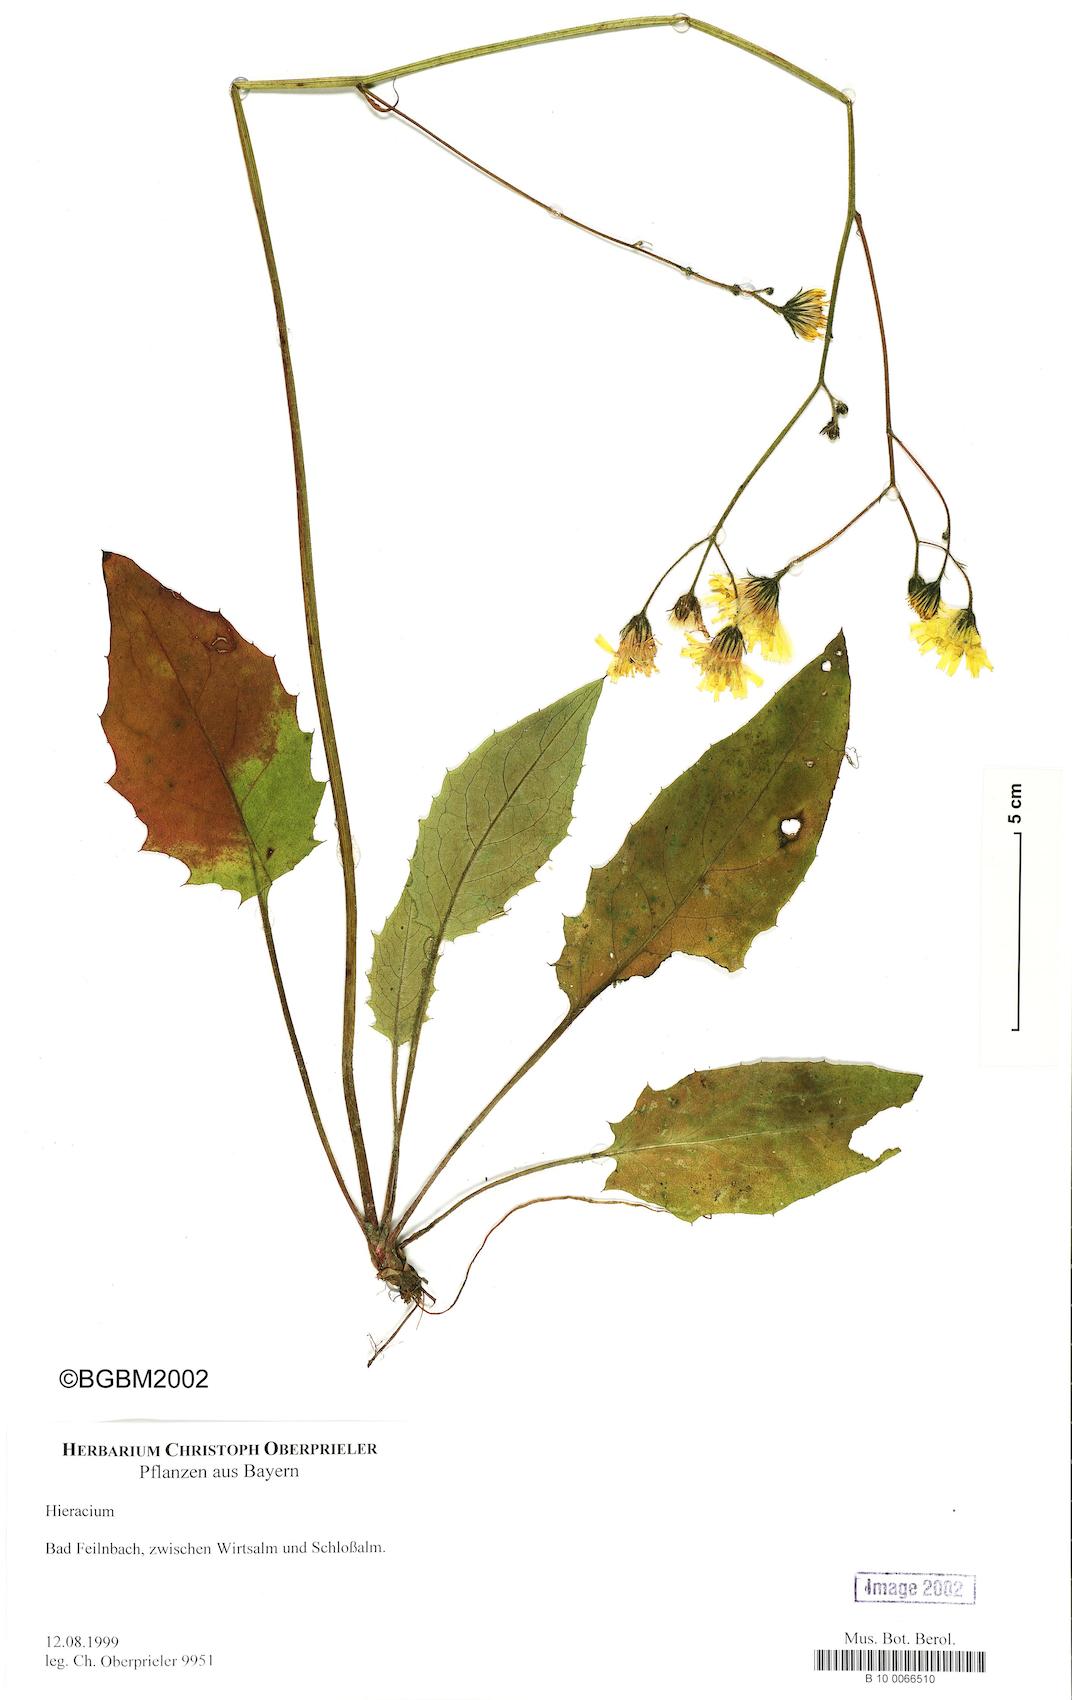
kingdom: Plantae
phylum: Tracheophyta
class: Magnoliopsida
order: Asterales
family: Asteraceae
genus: Hieracium
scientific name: Hieracium
